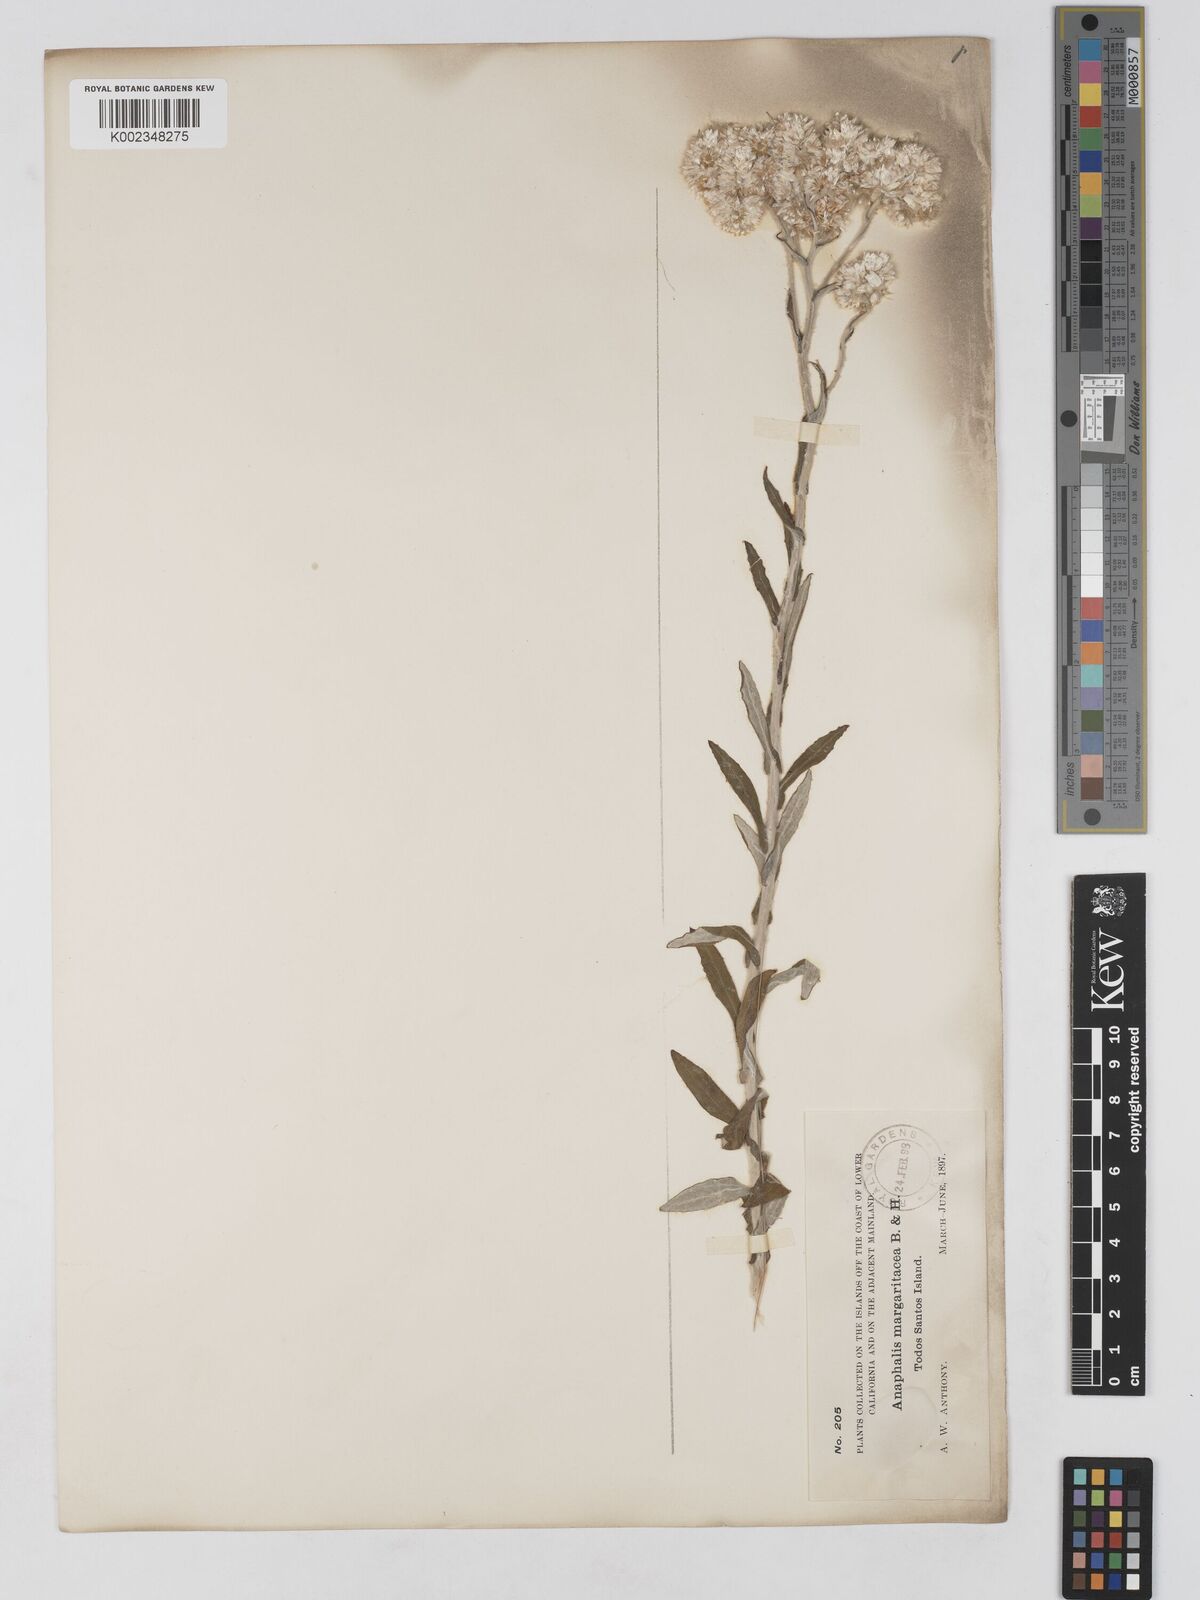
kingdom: Plantae
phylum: Tracheophyta
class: Magnoliopsida
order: Asterales
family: Asteraceae
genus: Anaphalis
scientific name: Anaphalis margaritacea
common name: Pearly everlasting
